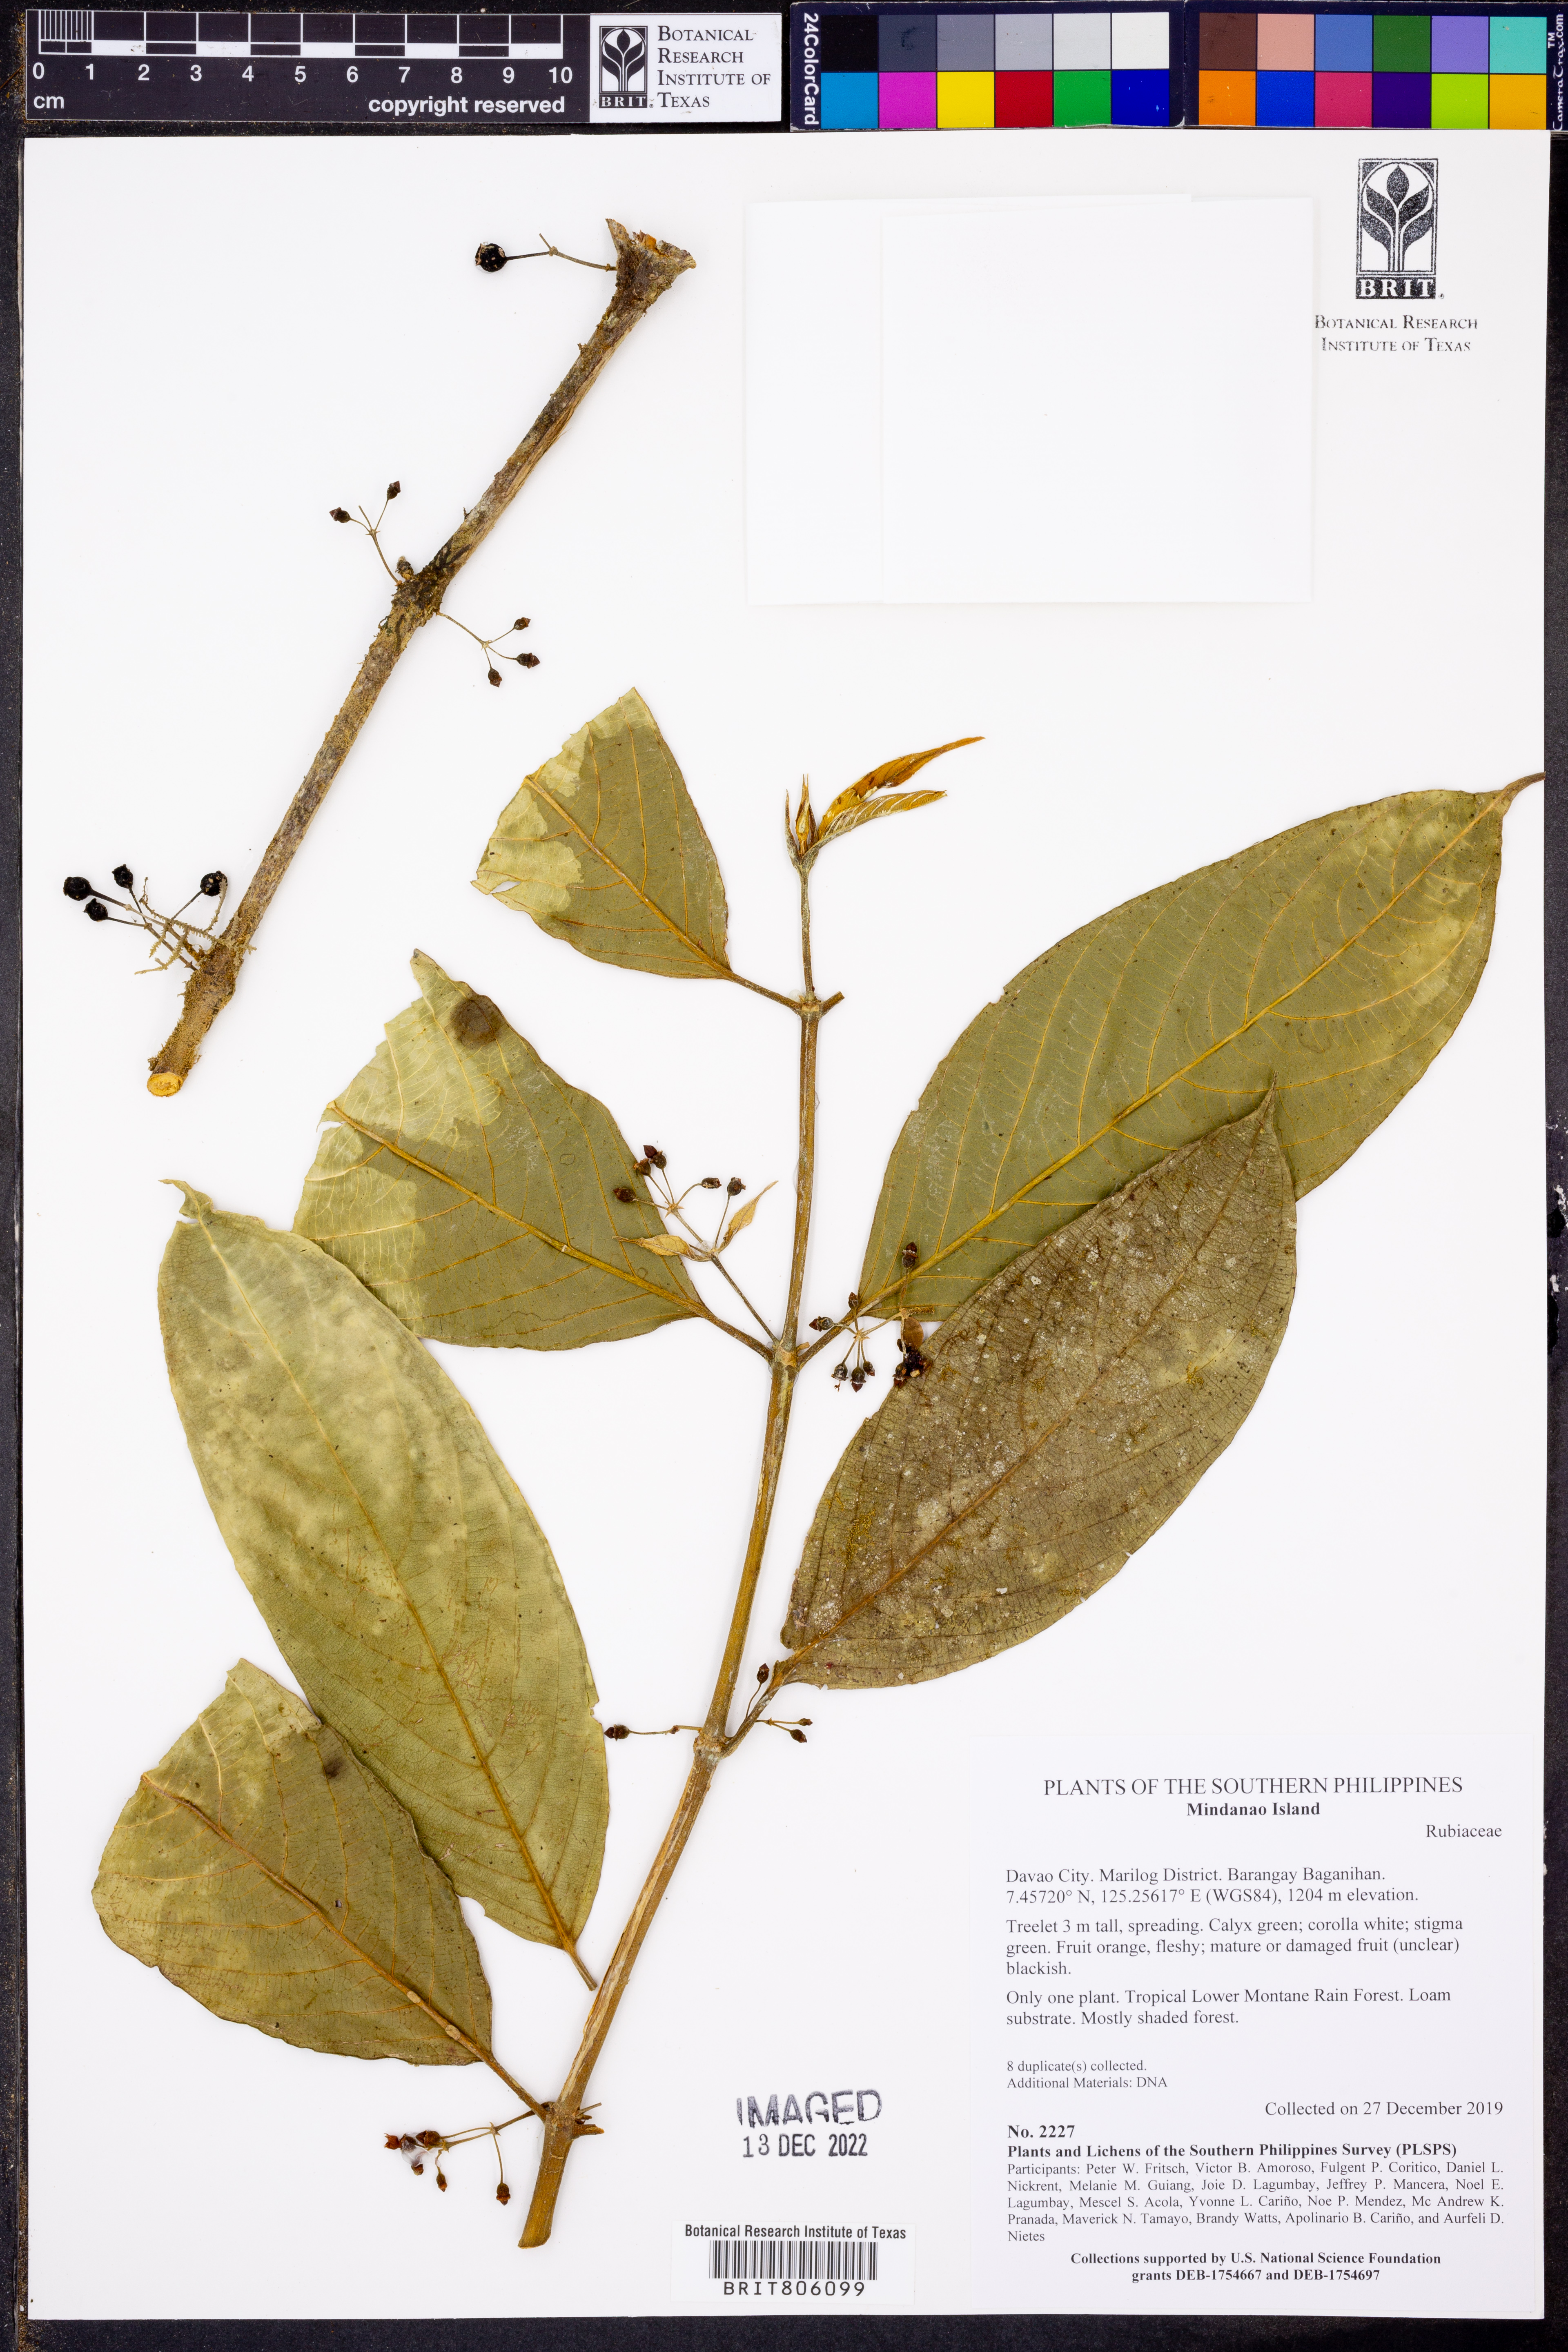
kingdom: Plantae
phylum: Tracheophyta
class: Magnoliopsida
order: Gentianales
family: Rubiaceae
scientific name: Rubiaceae
